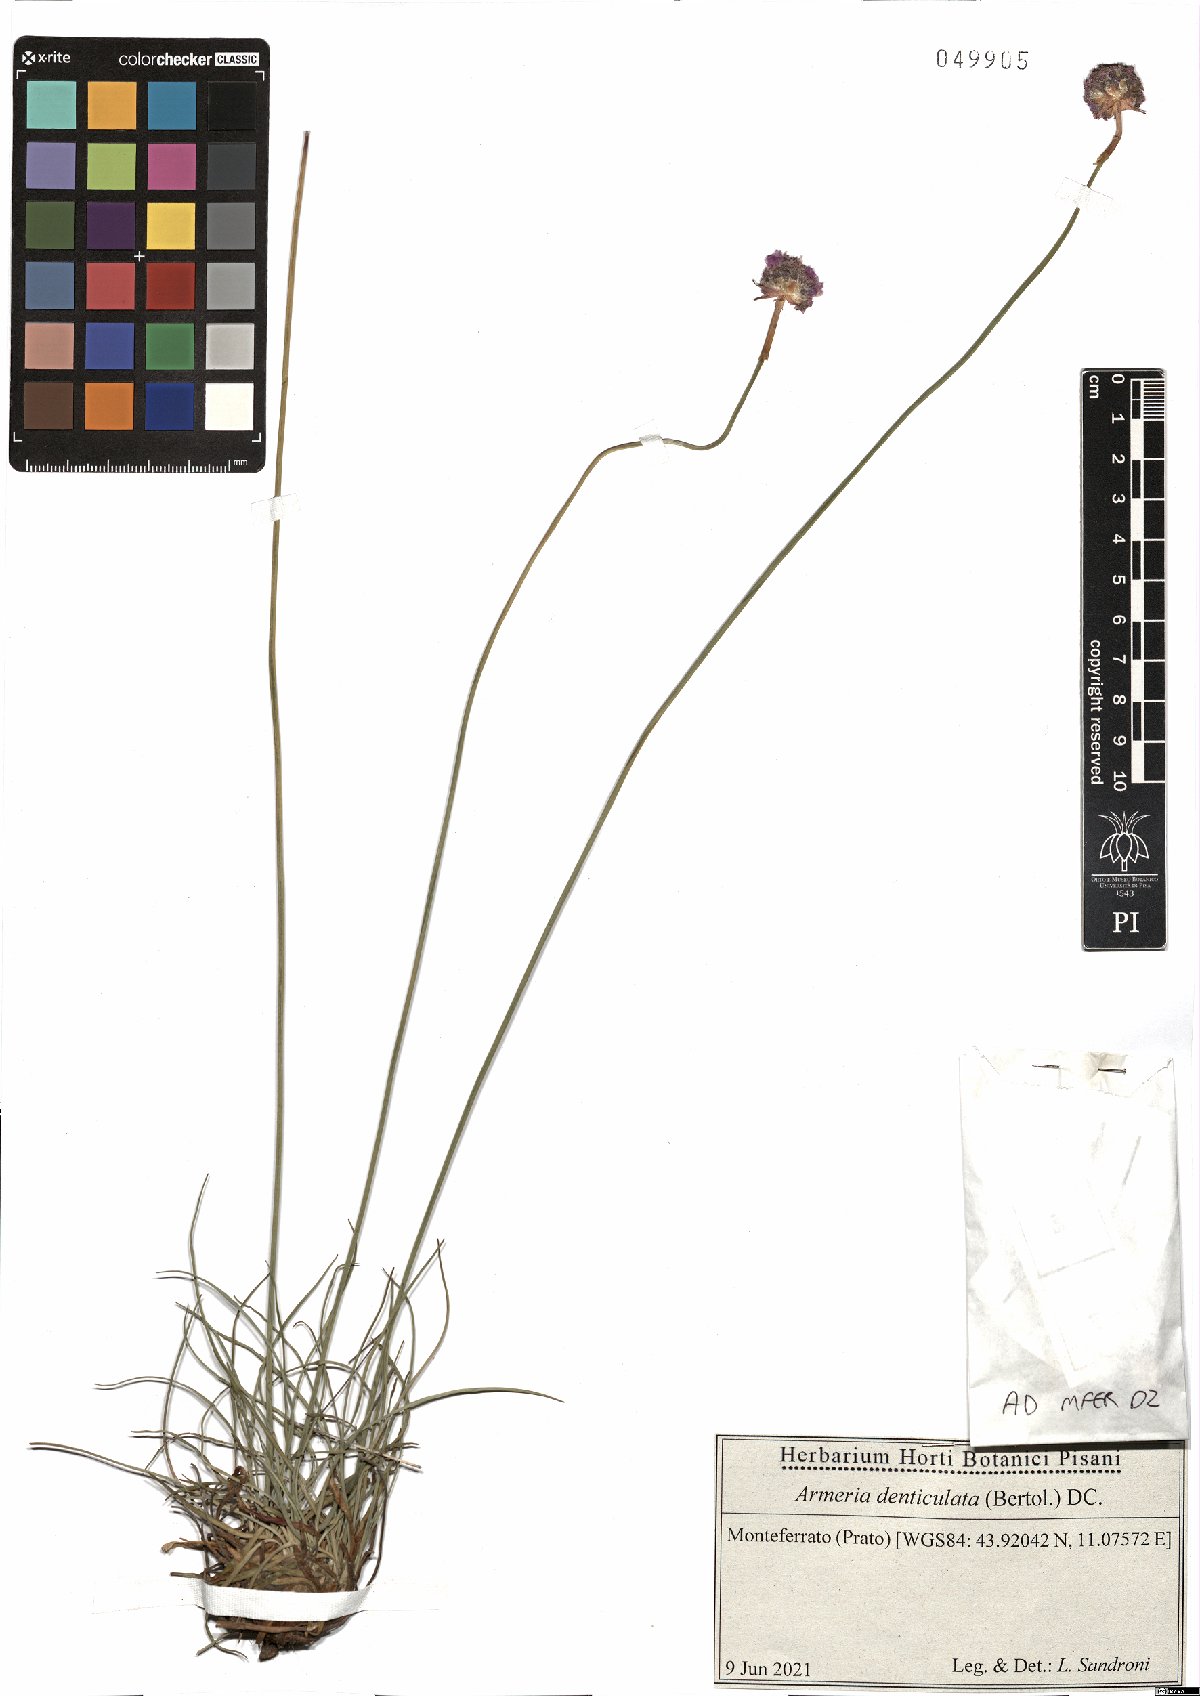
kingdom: Plantae
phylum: Tracheophyta
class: Magnoliopsida
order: Caryophyllales
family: Plumbaginaceae
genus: Armeria
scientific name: Armeria denticulata
